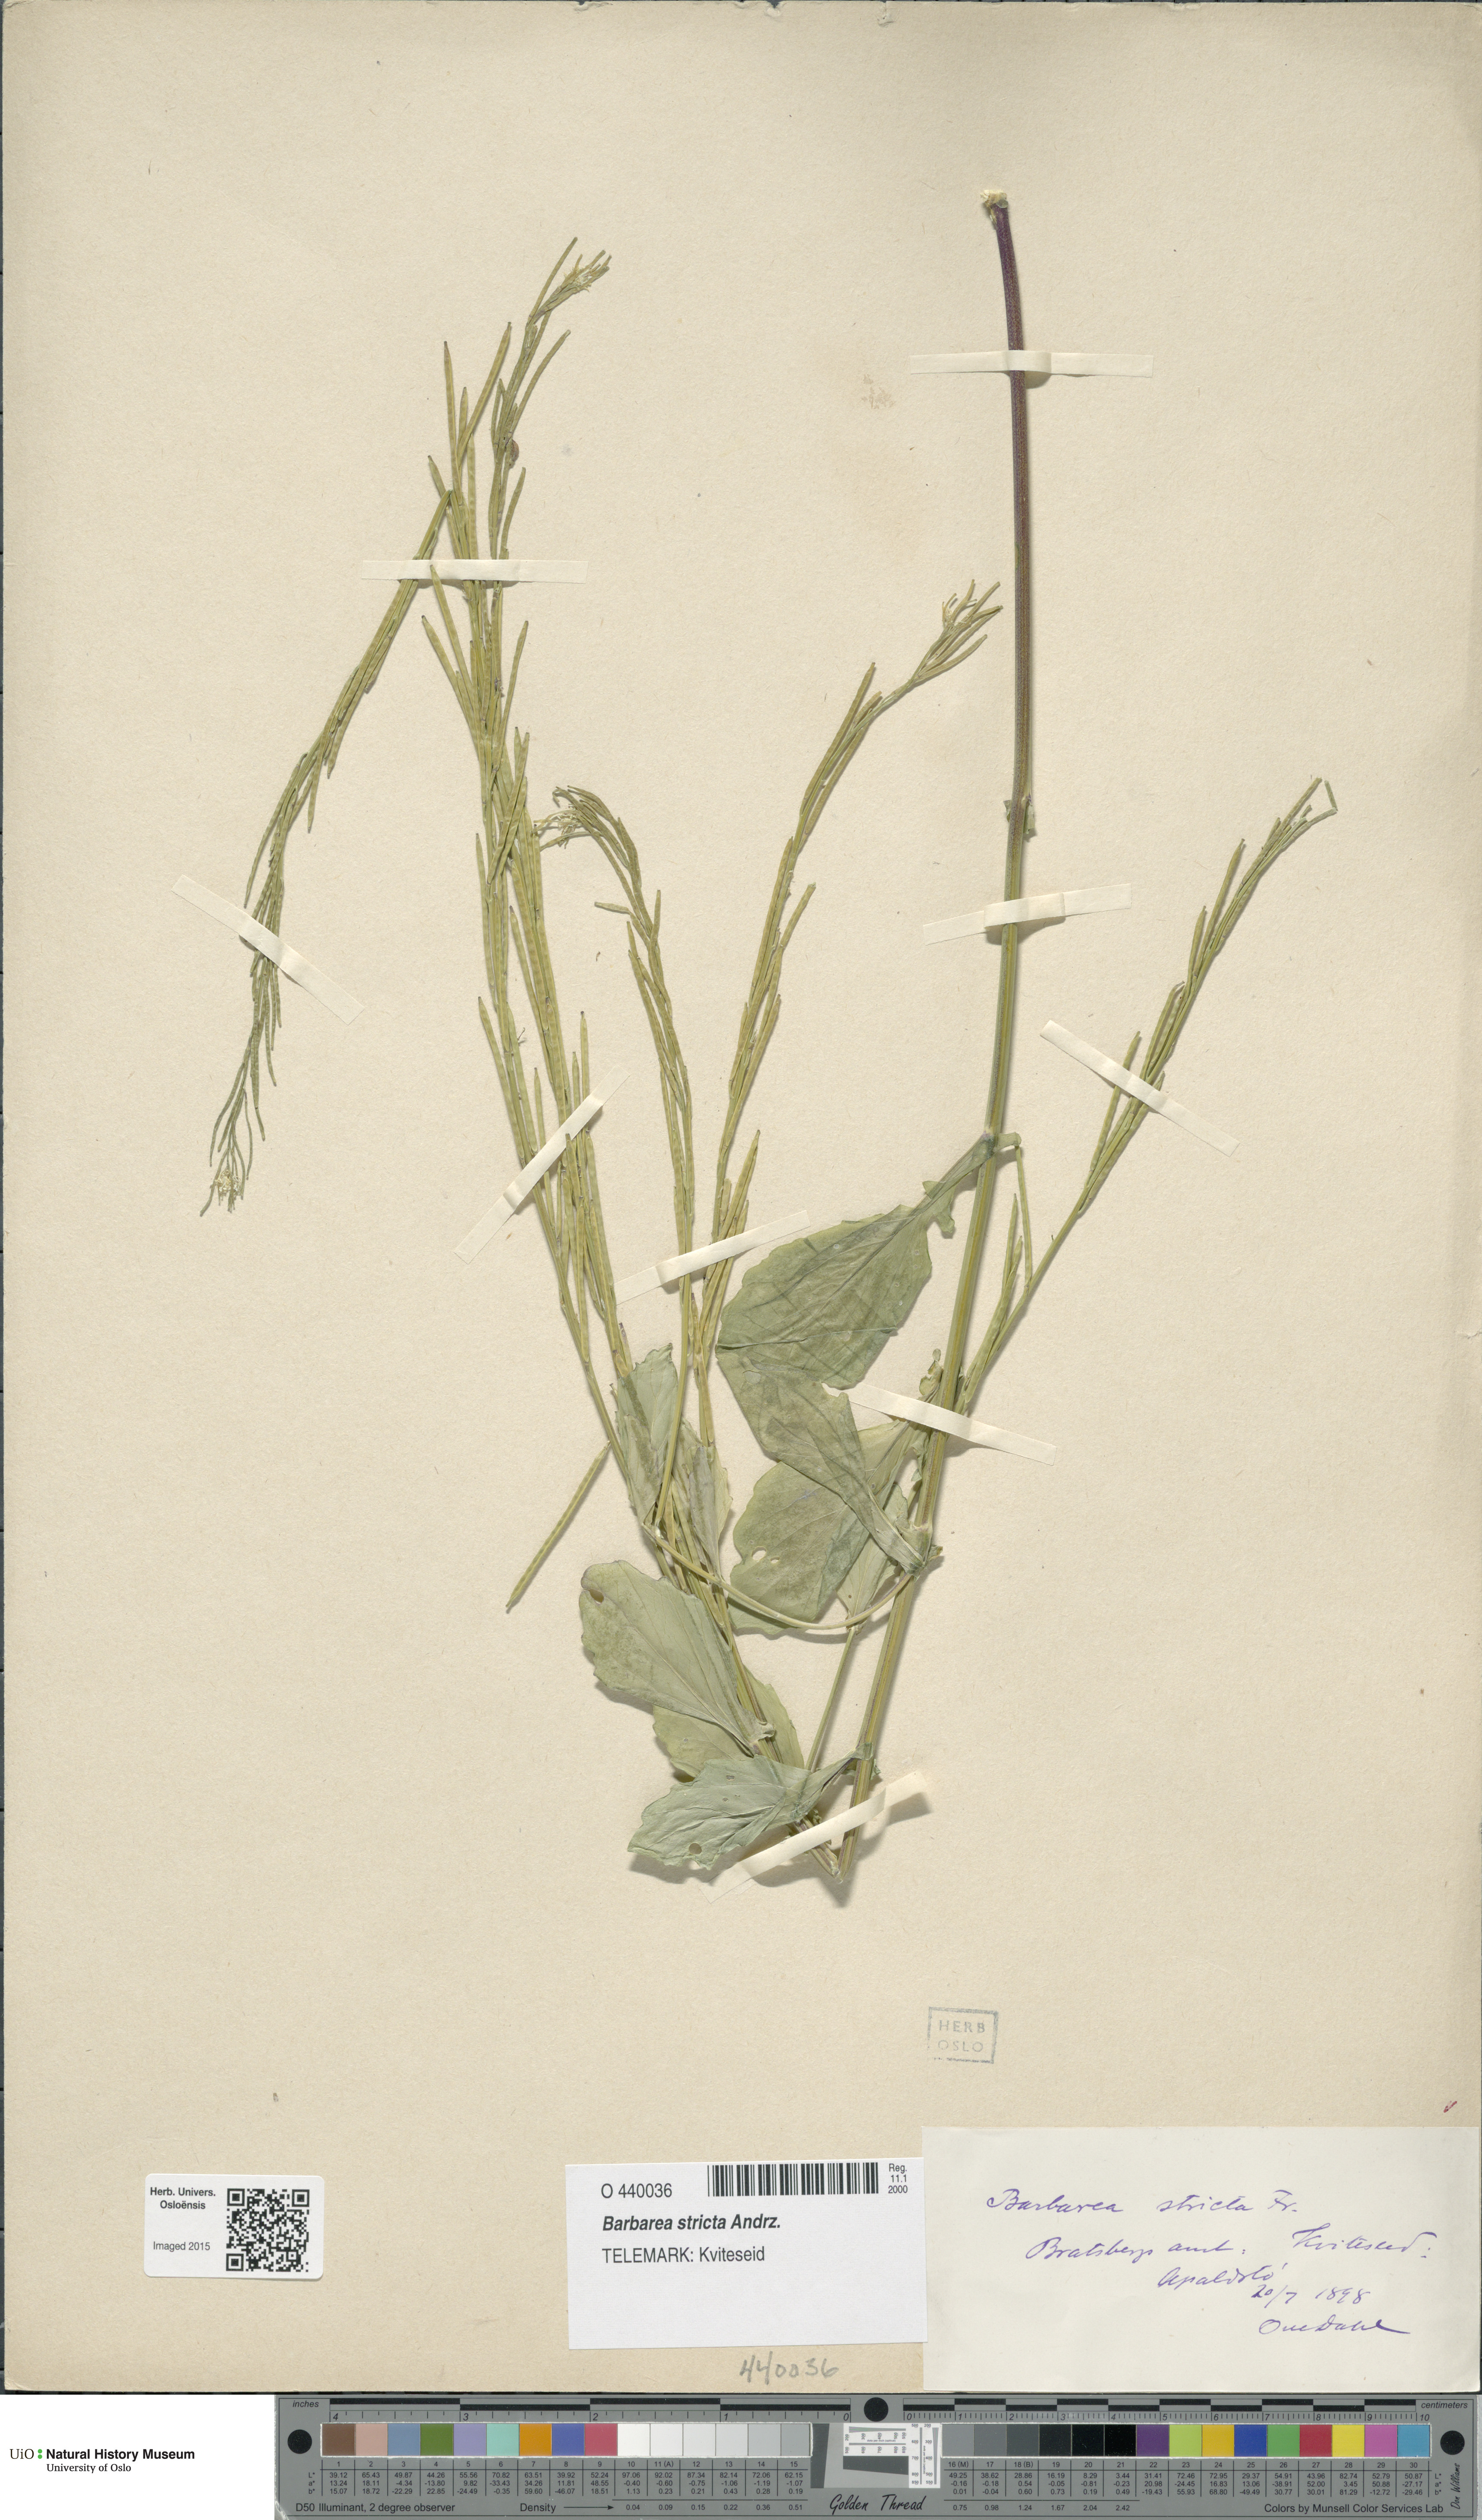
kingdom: Plantae
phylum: Tracheophyta
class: Magnoliopsida
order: Brassicales
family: Brassicaceae
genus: Barbarea
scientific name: Barbarea stricta
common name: Small-flowered winter-cress
